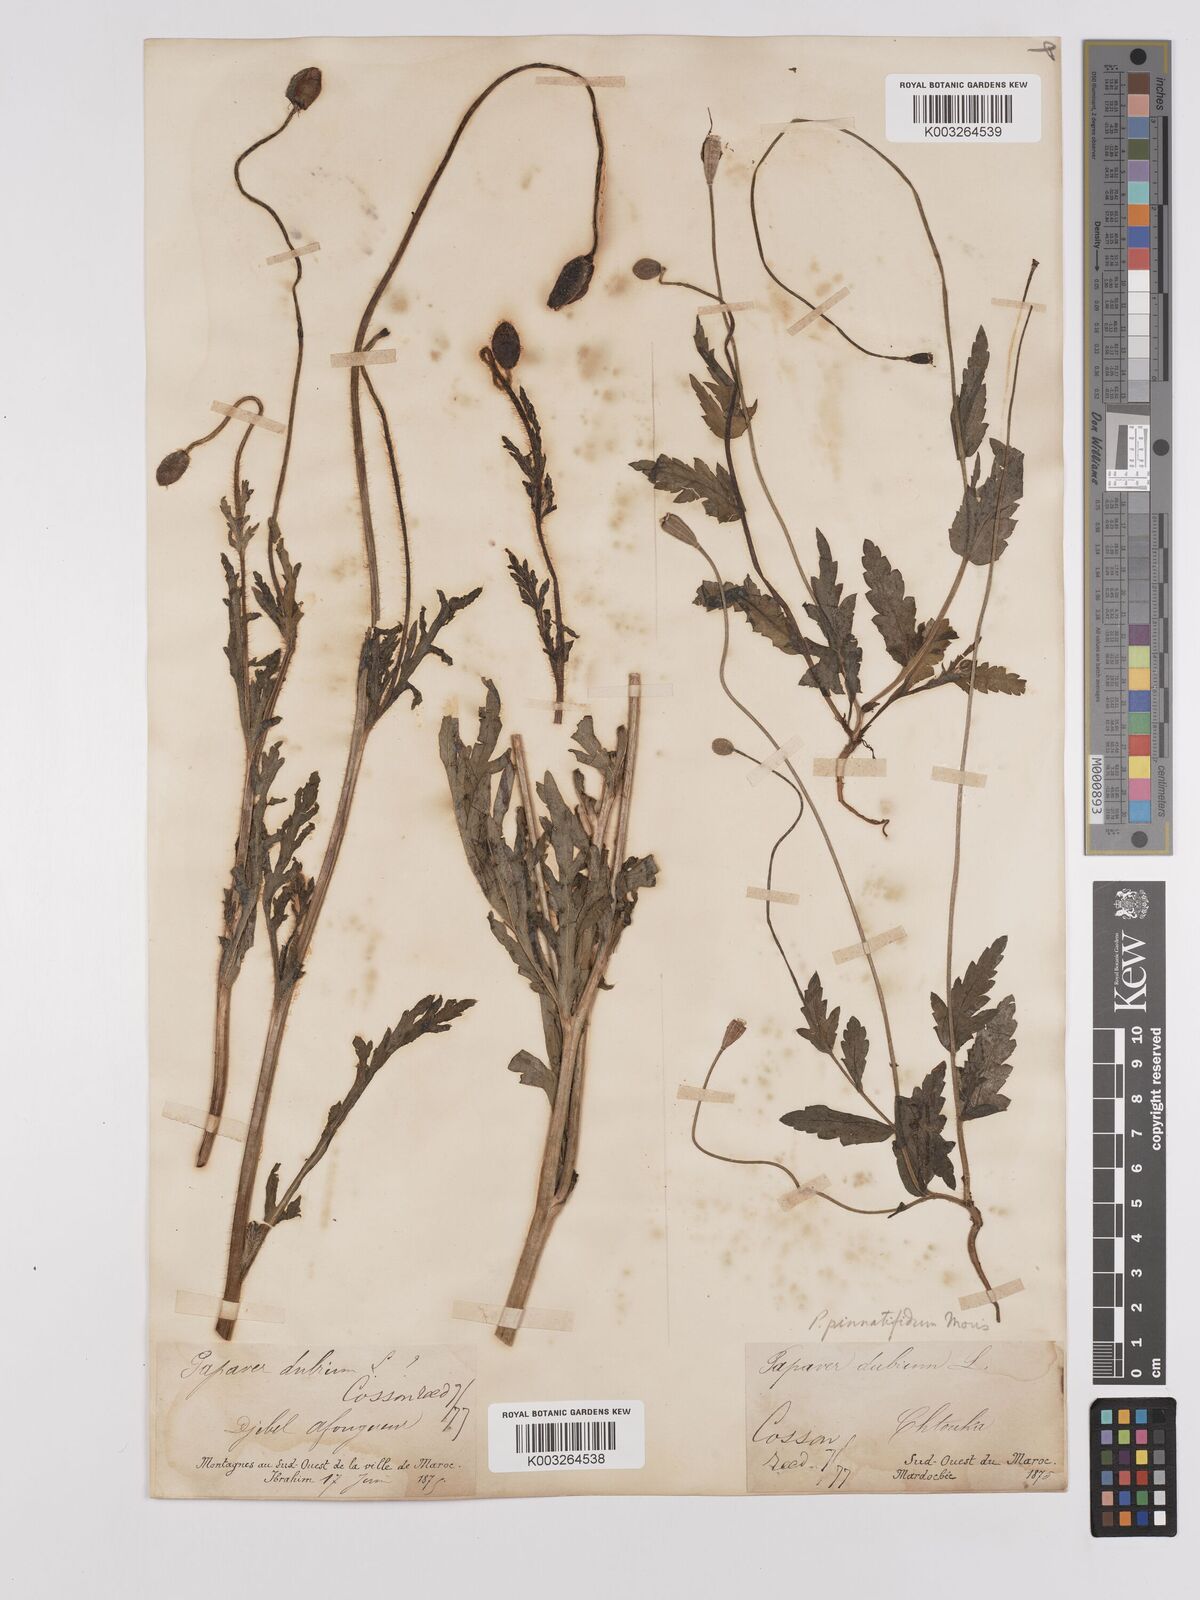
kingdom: Plantae
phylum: Tracheophyta
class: Magnoliopsida
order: Ranunculales
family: Papaveraceae
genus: Papaver
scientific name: Papaver pinnatifidum
